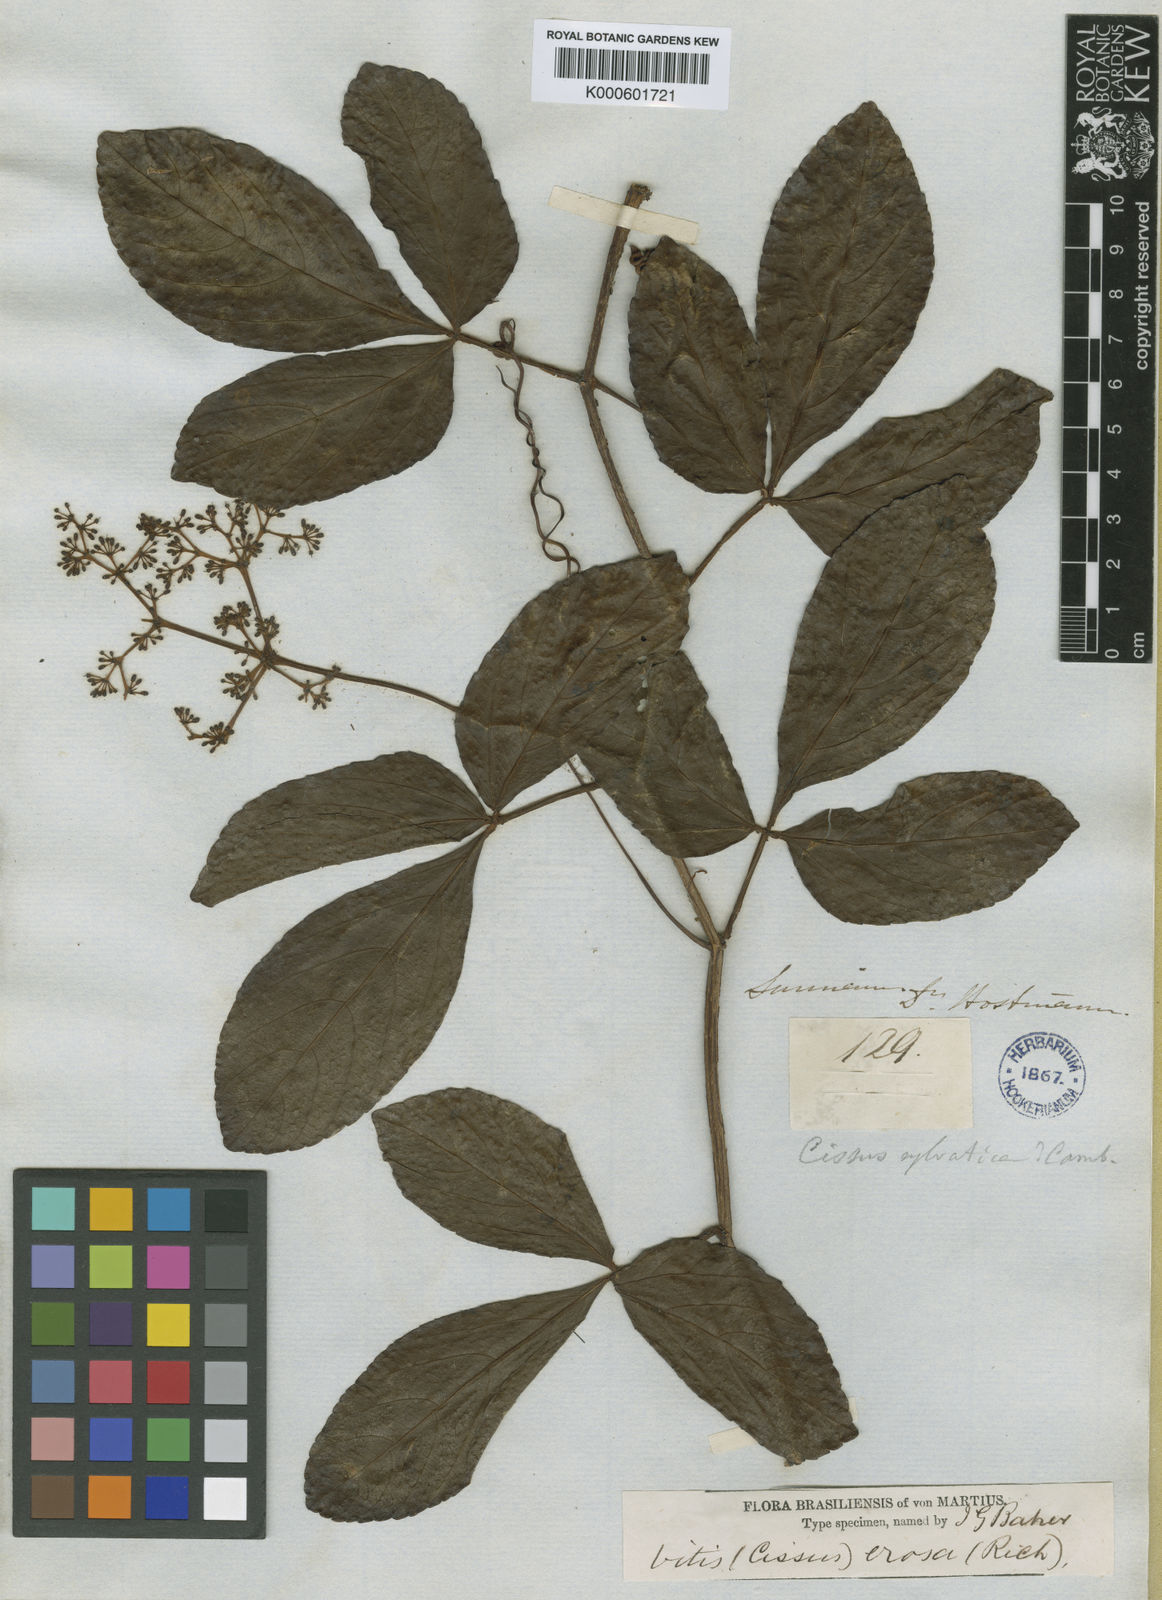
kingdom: Plantae
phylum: Tracheophyta
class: Magnoliopsida
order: Vitales
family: Vitaceae
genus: Cissus
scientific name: Cissus erosa
